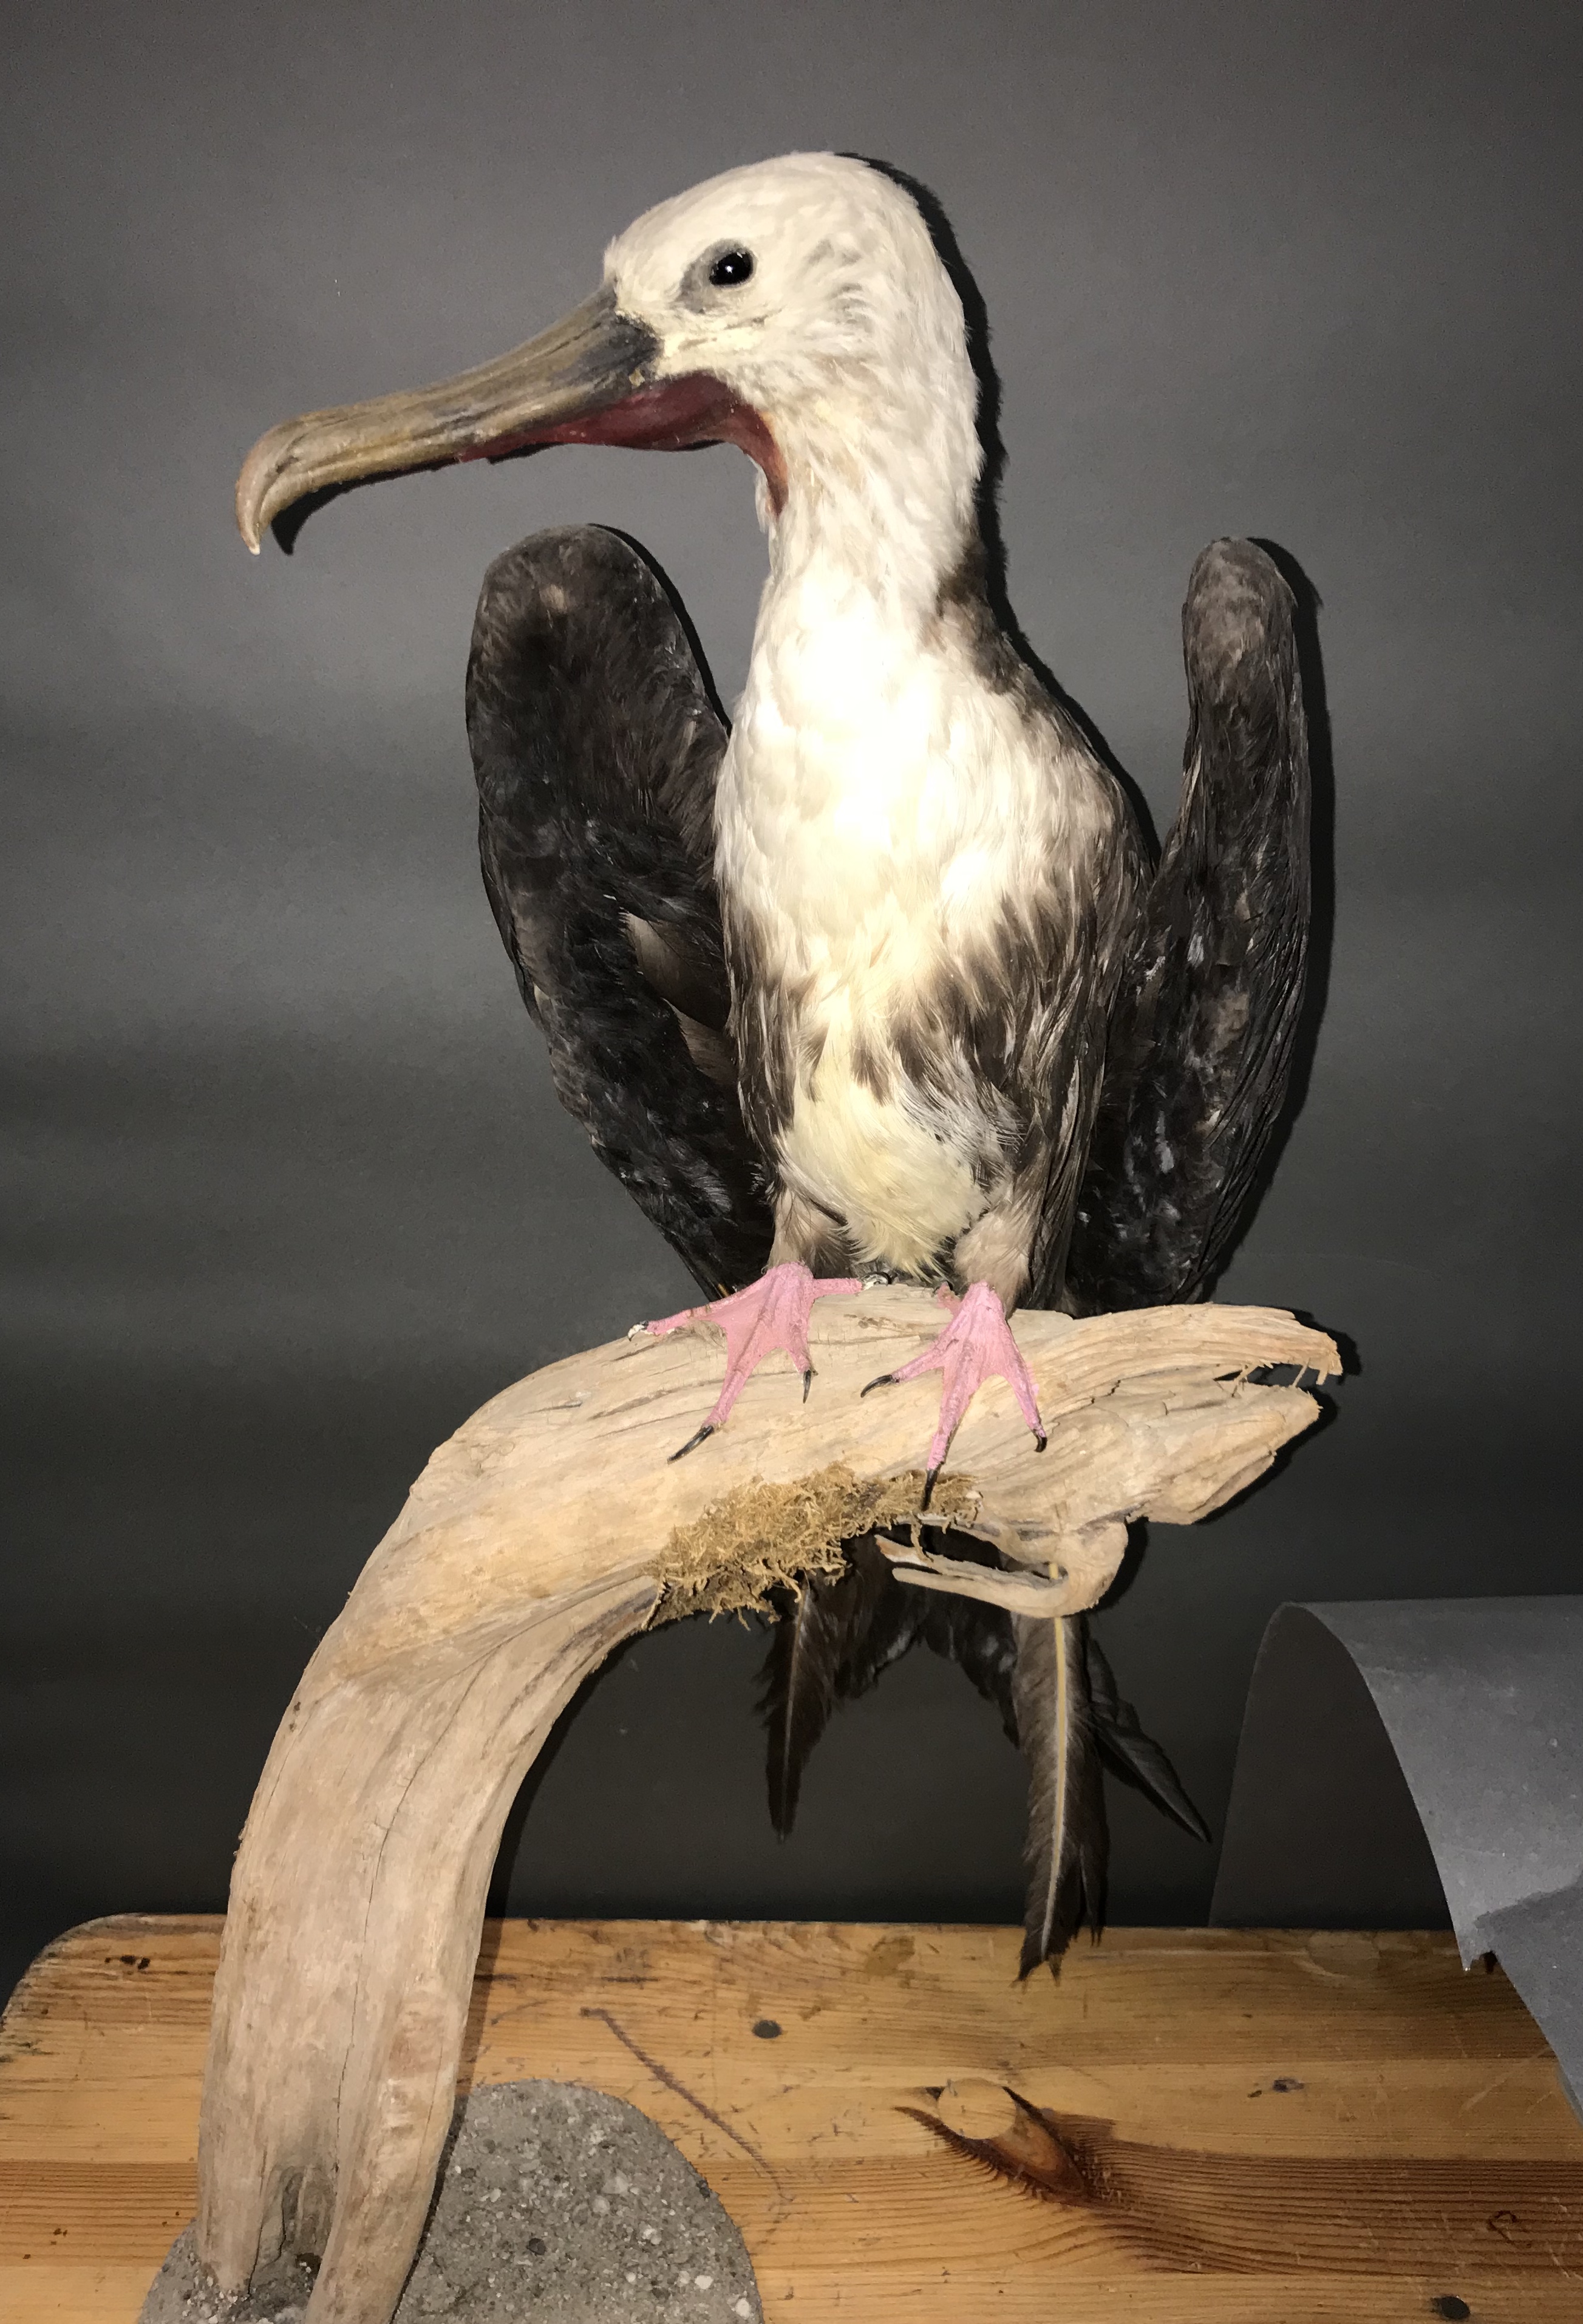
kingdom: Animalia
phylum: Chordata
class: Aves
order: Suliformes
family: Fregatidae
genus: Fregata
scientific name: Fregata minor
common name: Great frigatebird
